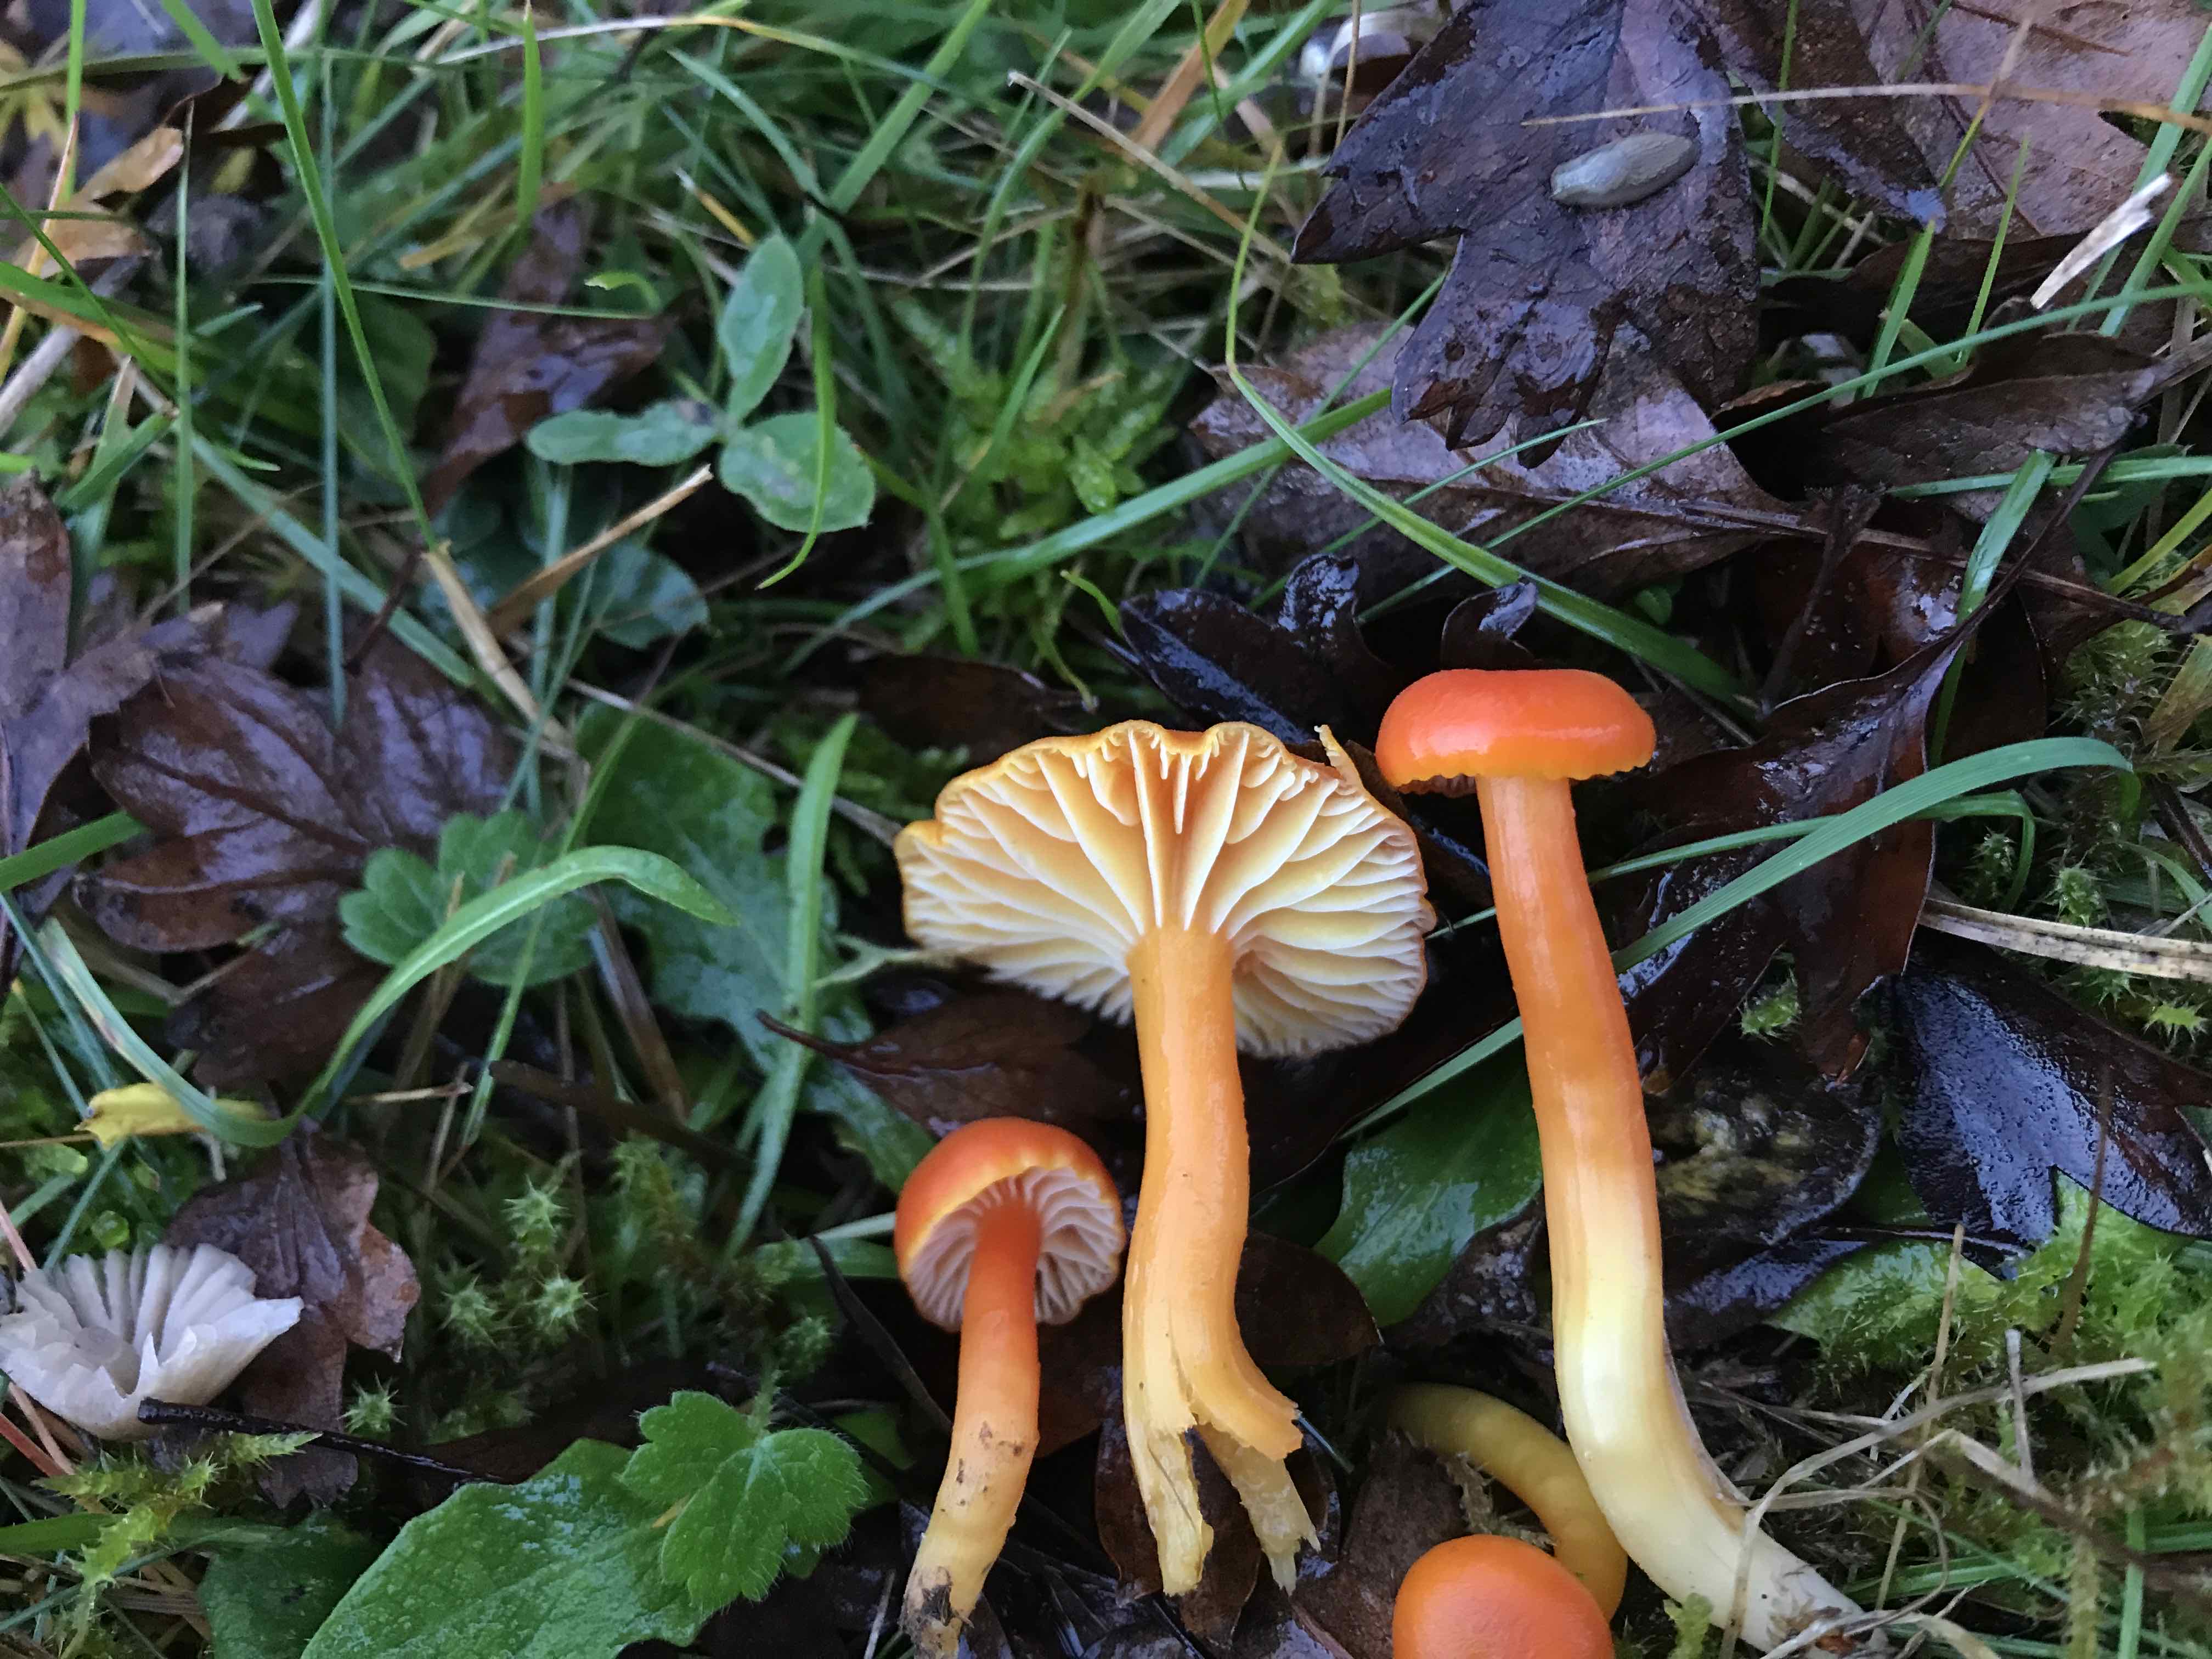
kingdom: Fungi
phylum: Basidiomycota
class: Agaricomycetes
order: Agaricales
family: Hygrophoraceae
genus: Hygrocybe
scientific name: Hygrocybe reidii
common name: honning-vokshat
